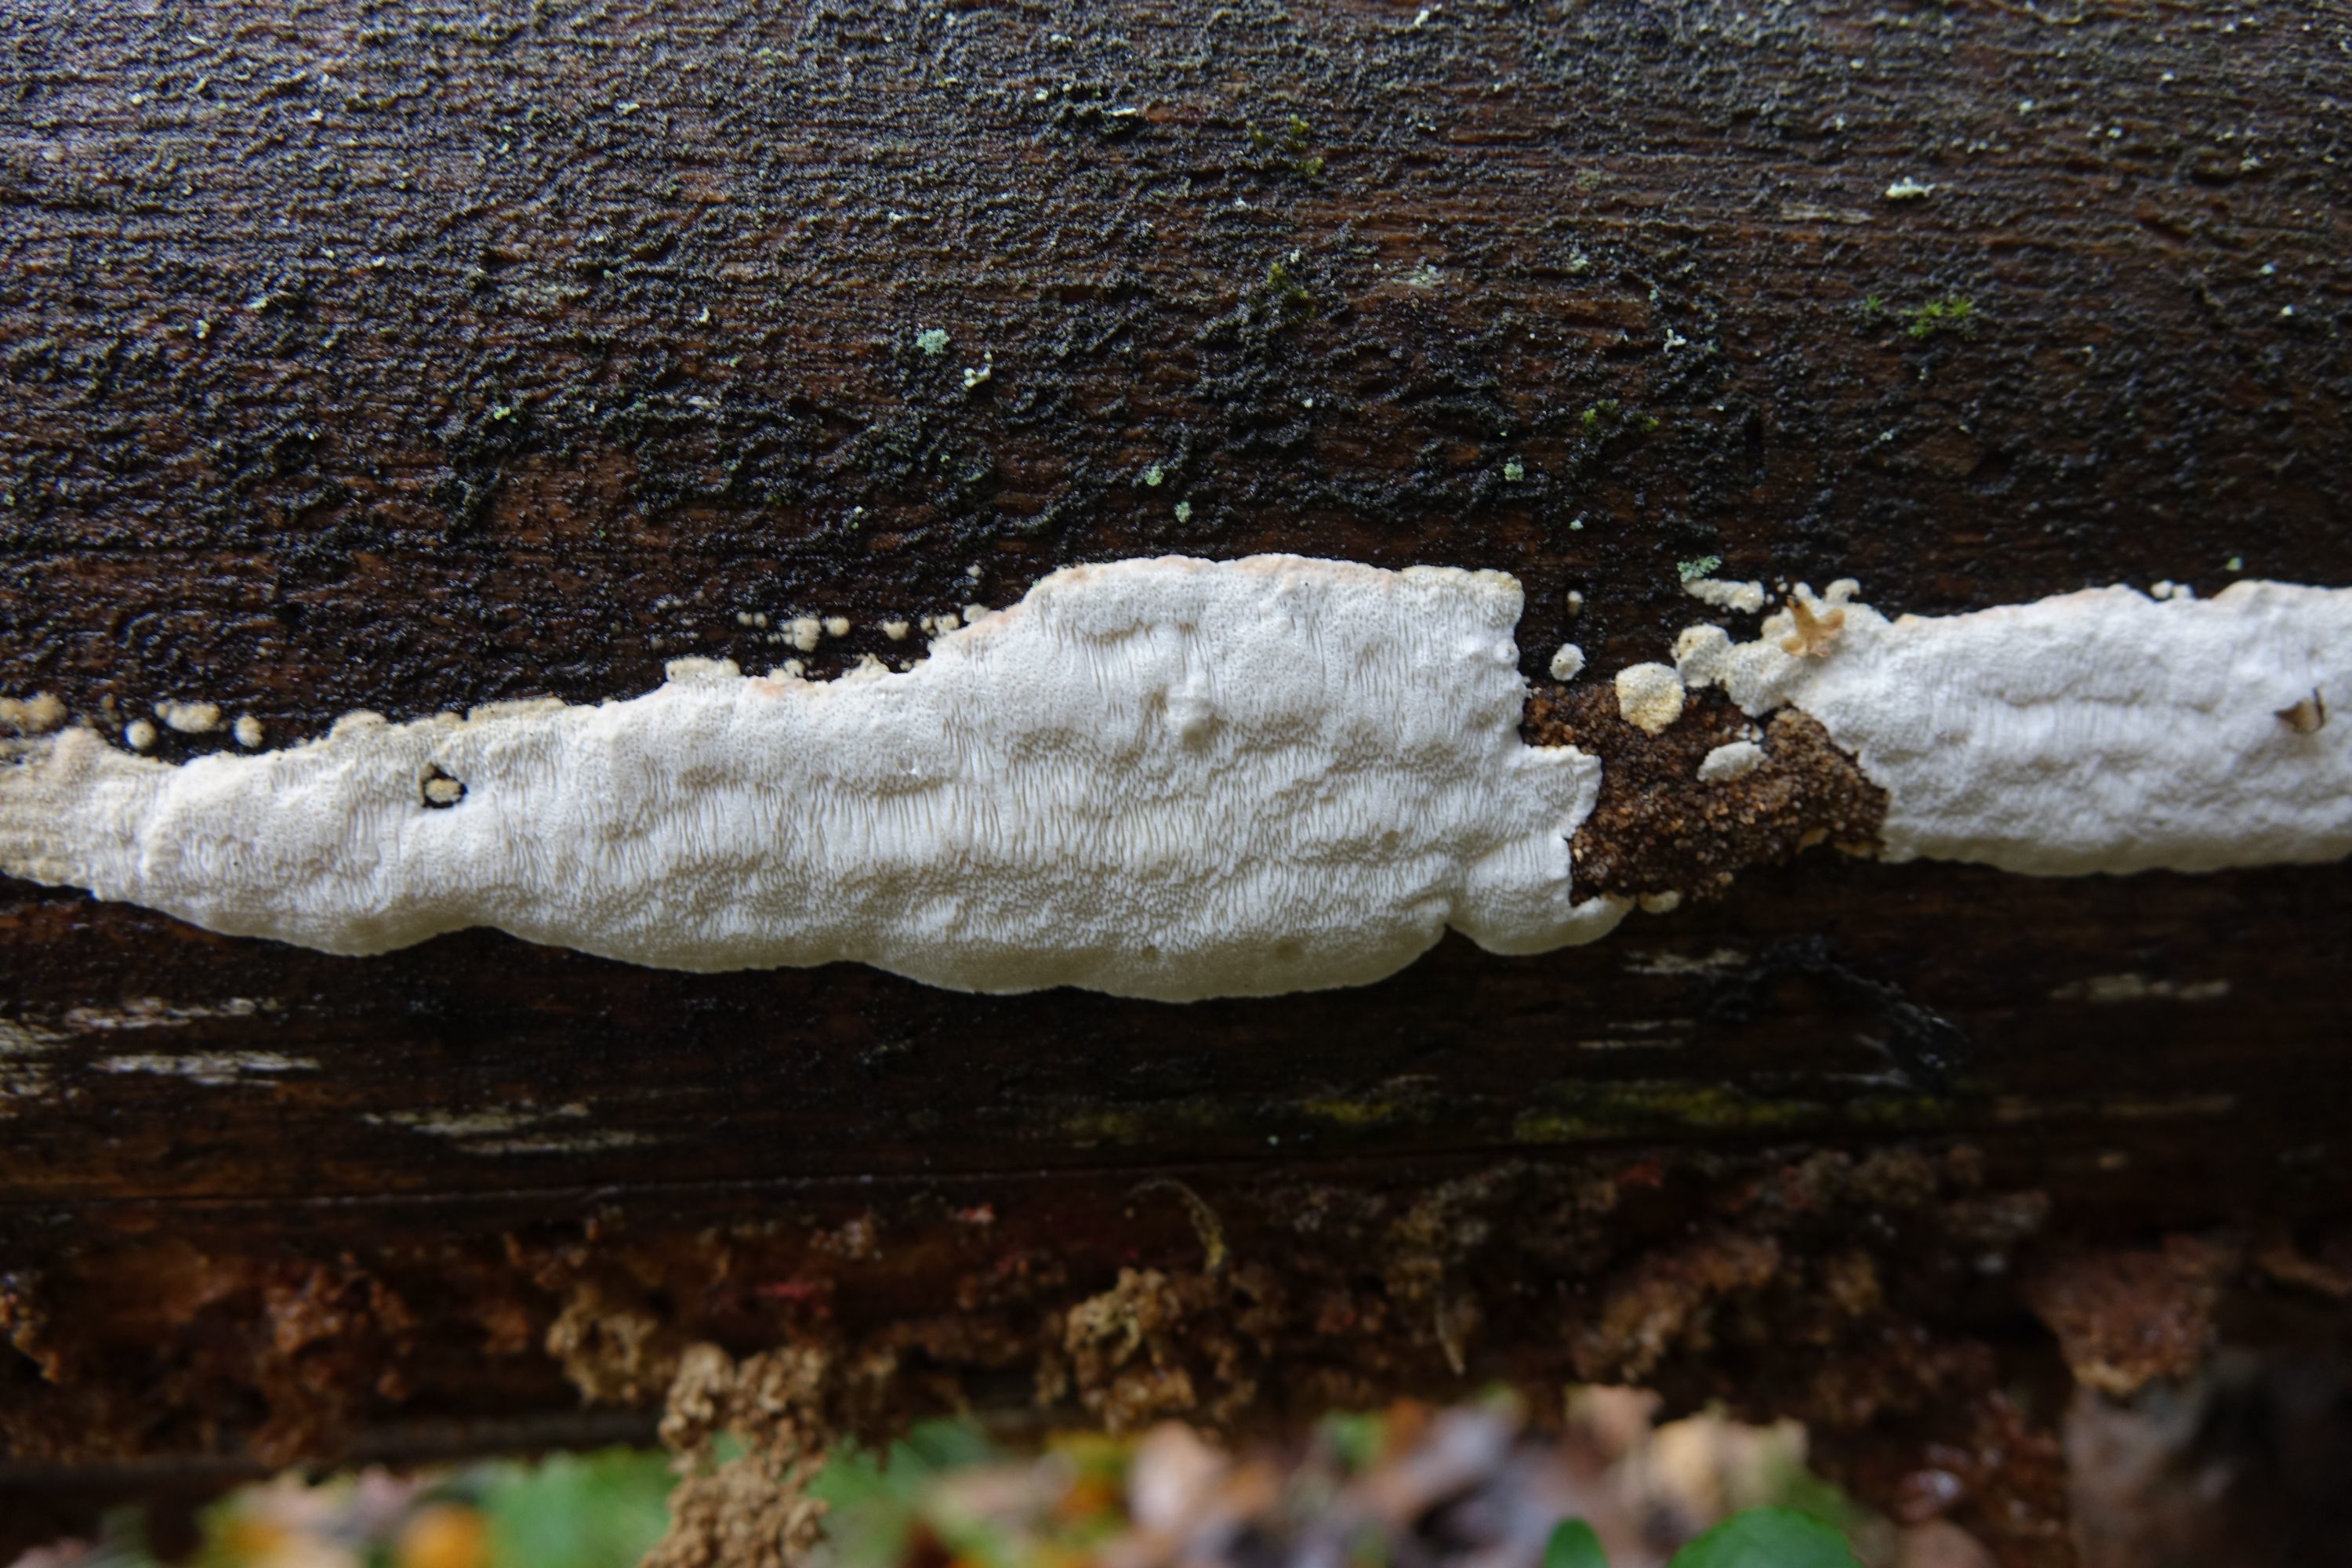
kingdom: Fungi
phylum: Basidiomycota
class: Agaricomycetes
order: Polyporales
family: Fomitopsidaceae
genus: Neoantrodia
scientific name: Neoantrodia serialis
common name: Serried porecrust
